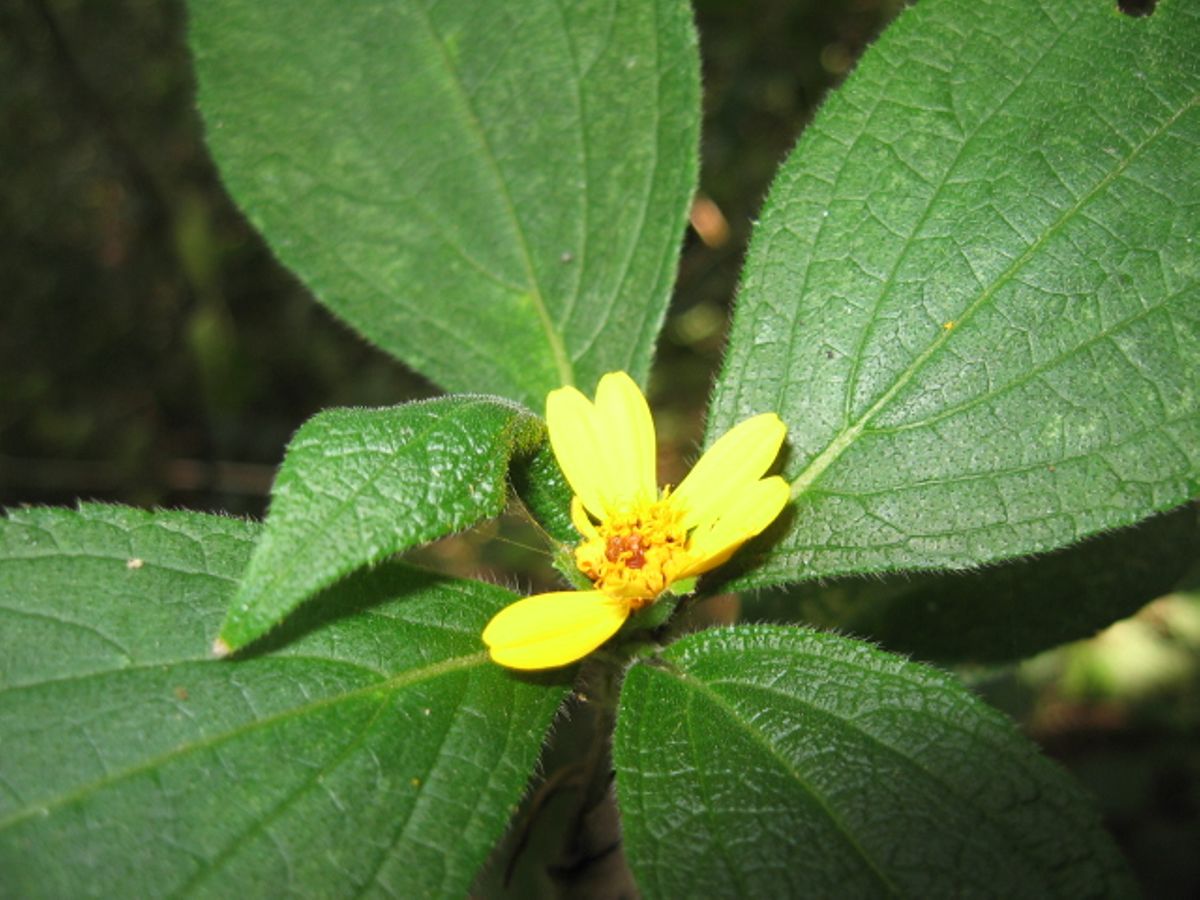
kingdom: Plantae
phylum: Tracheophyta
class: Magnoliopsida
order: Asterales
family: Asteraceae
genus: Lasianthaea
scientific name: Lasianthaea fruticosa
